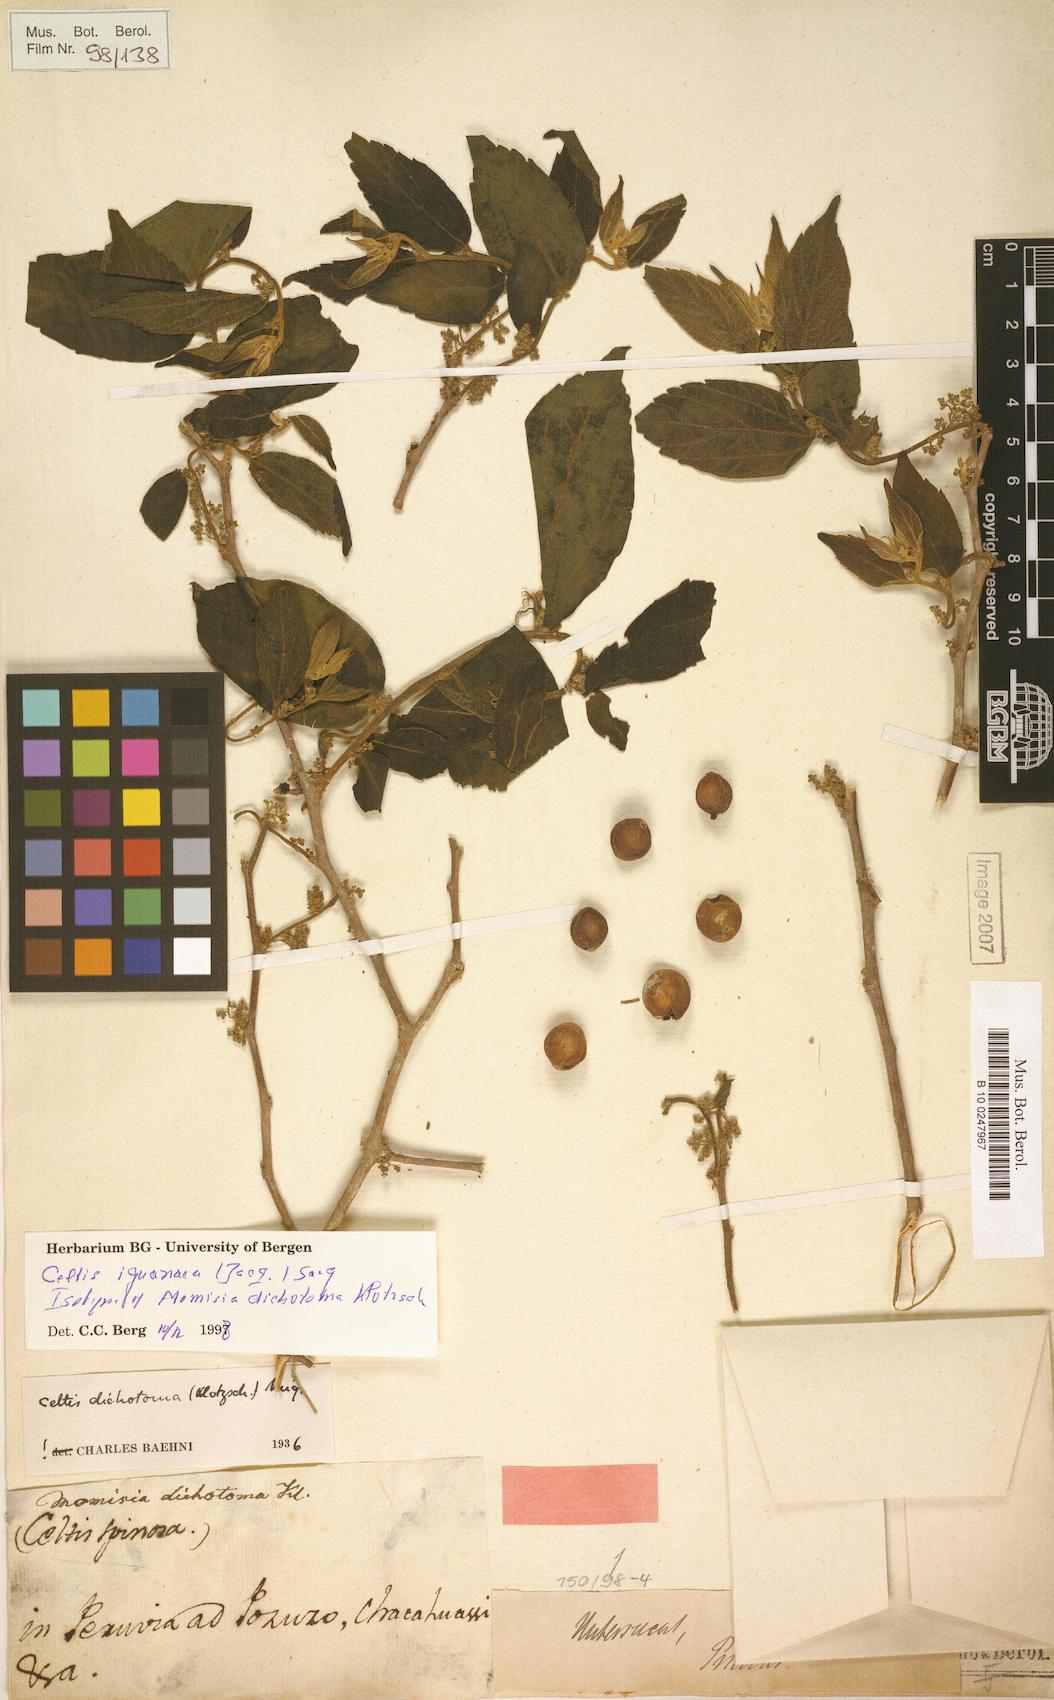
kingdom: Plantae
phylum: Tracheophyta
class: Magnoliopsida
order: Rosales
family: Cannabaceae
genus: Celtis
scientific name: Celtis iguanaea
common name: Iguana hackberry
